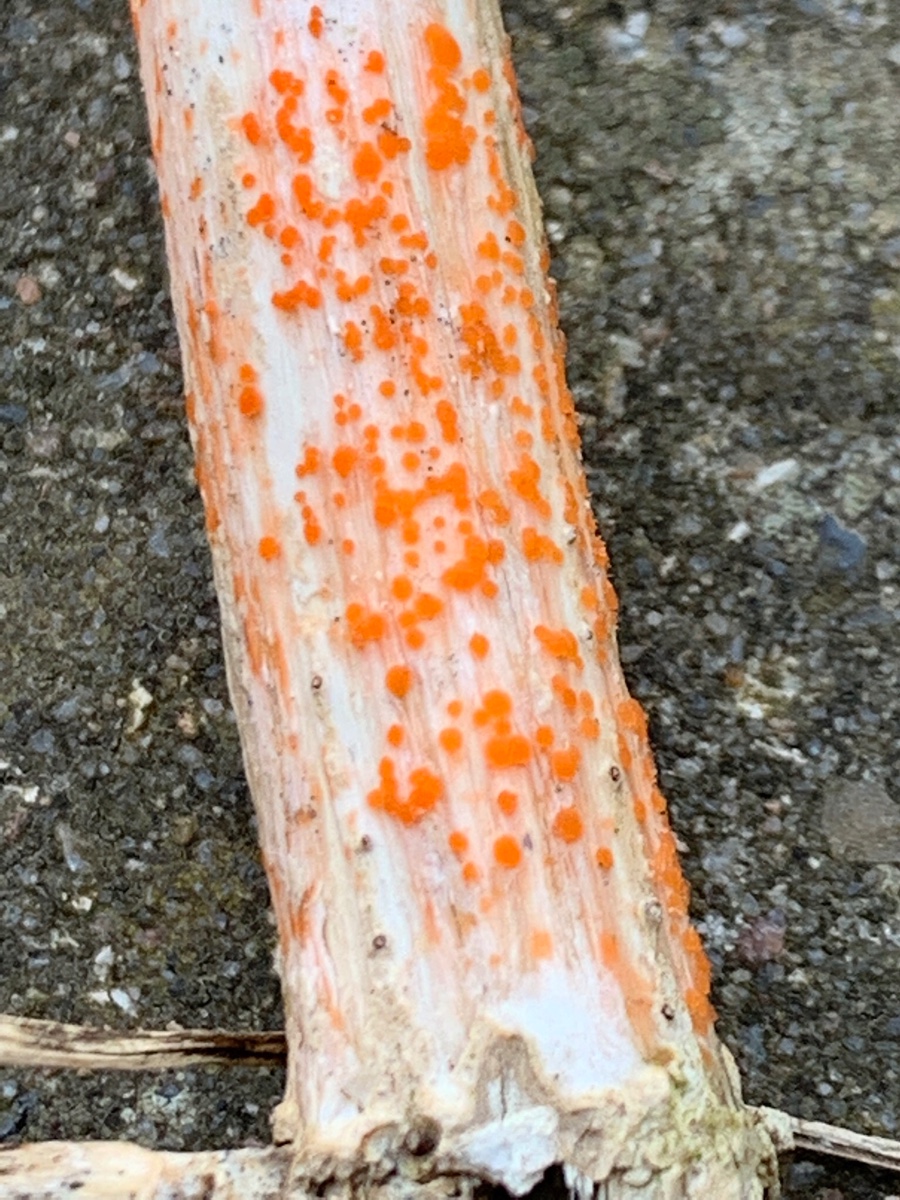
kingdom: Fungi
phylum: Ascomycota
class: Leotiomycetes
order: Helotiales
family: Calloriaceae
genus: Calloria
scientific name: Calloria urticae
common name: nælde-orangeskive
